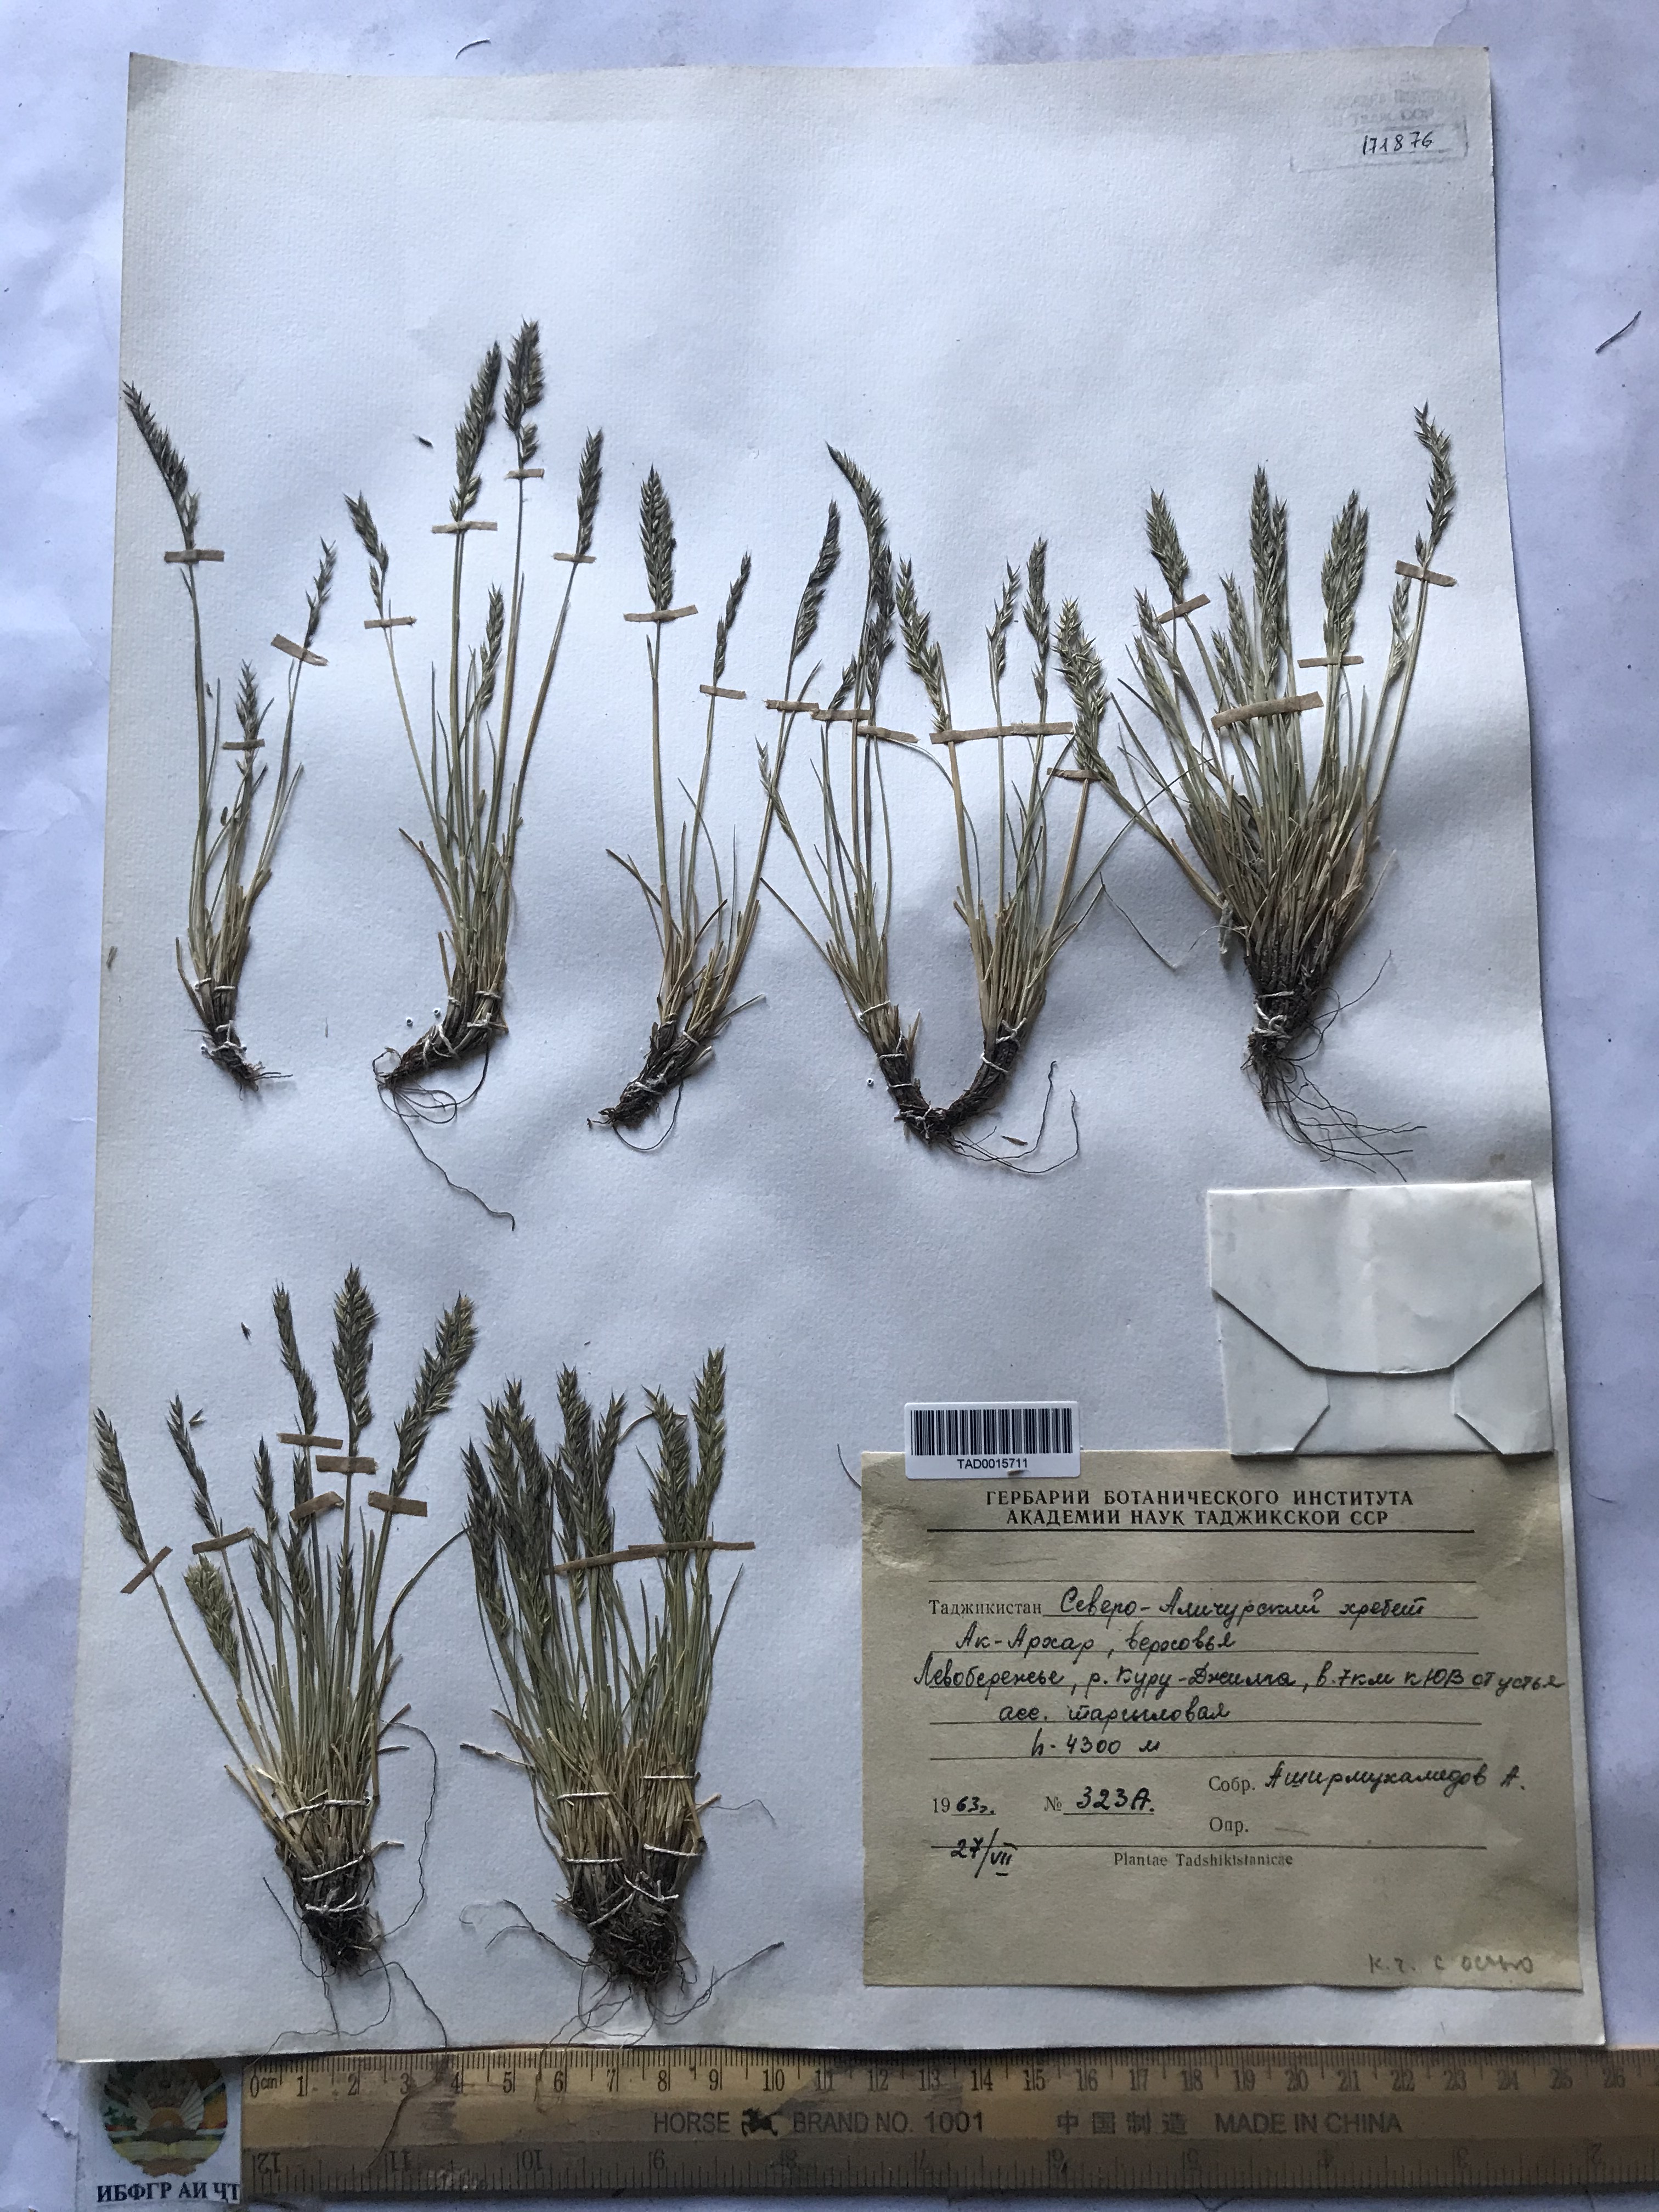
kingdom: Plantae
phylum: Tracheophyta
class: Liliopsida
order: Poales
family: Poaceae
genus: Festuca
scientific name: Festuca coelestis
